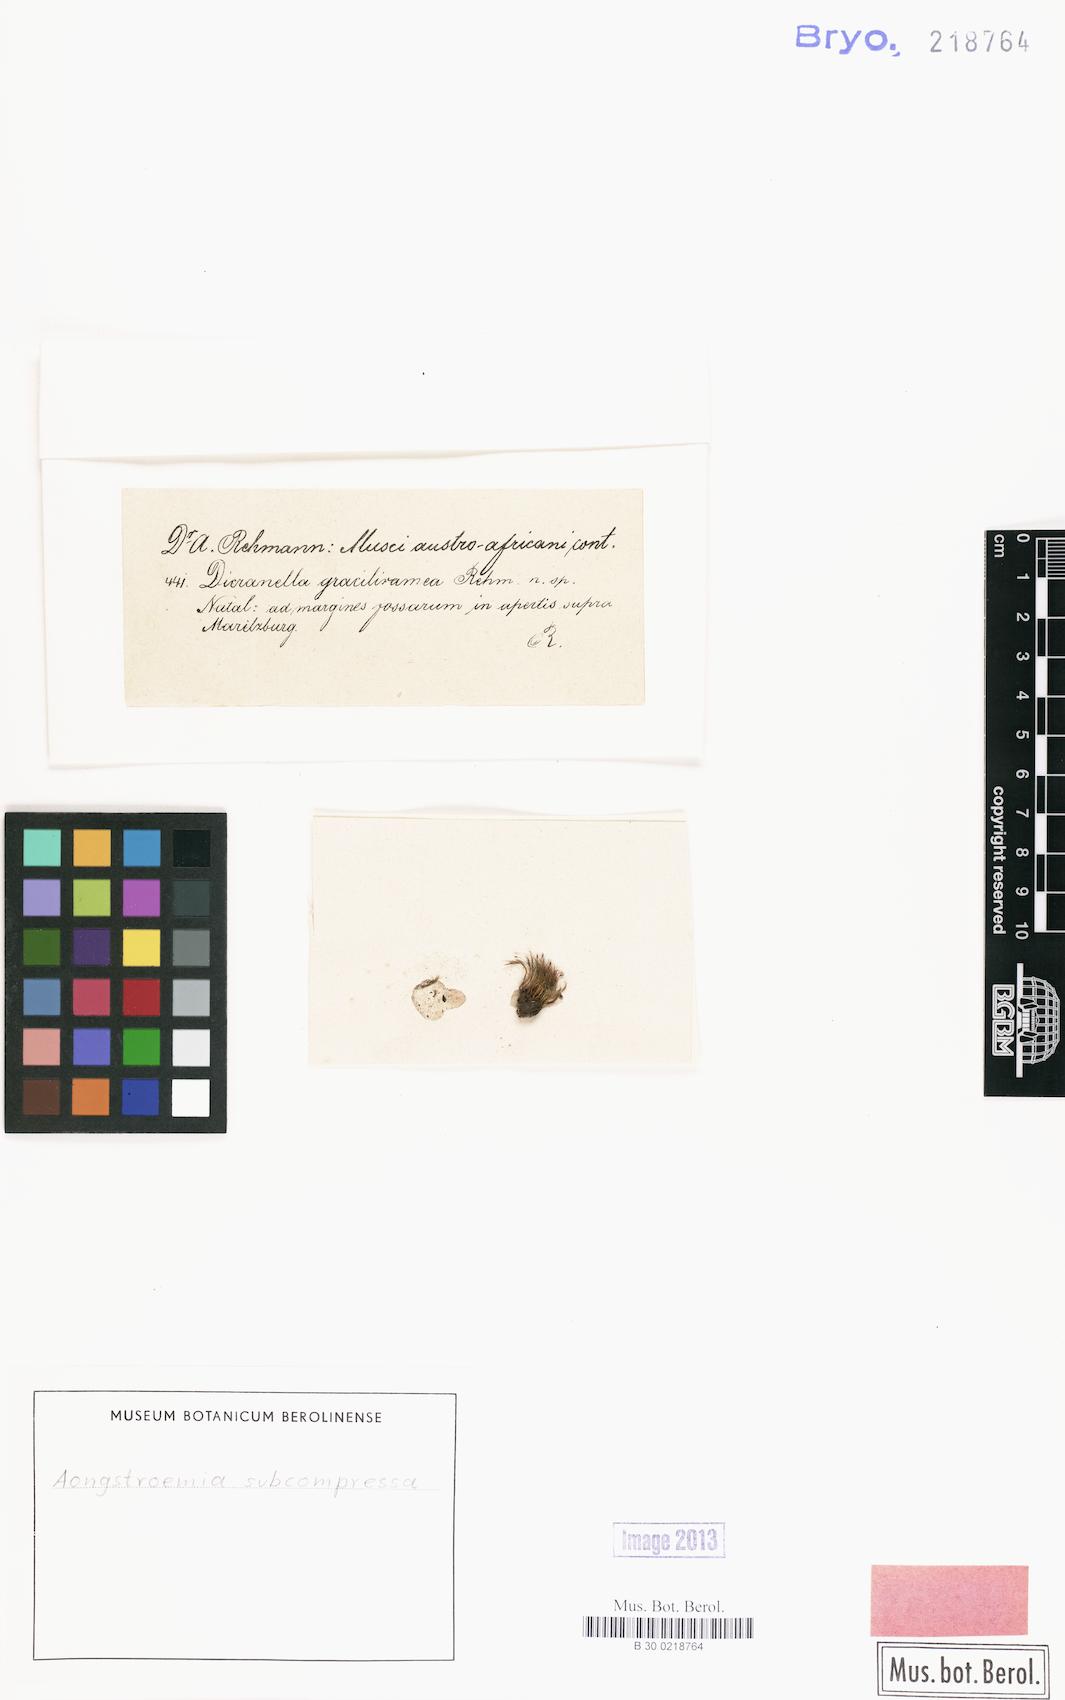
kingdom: Plantae
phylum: Bryophyta
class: Bryopsida
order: Dicranales
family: Aongstroemiaceae
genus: Aongstroemia
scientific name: Aongstroemia subcompressa
